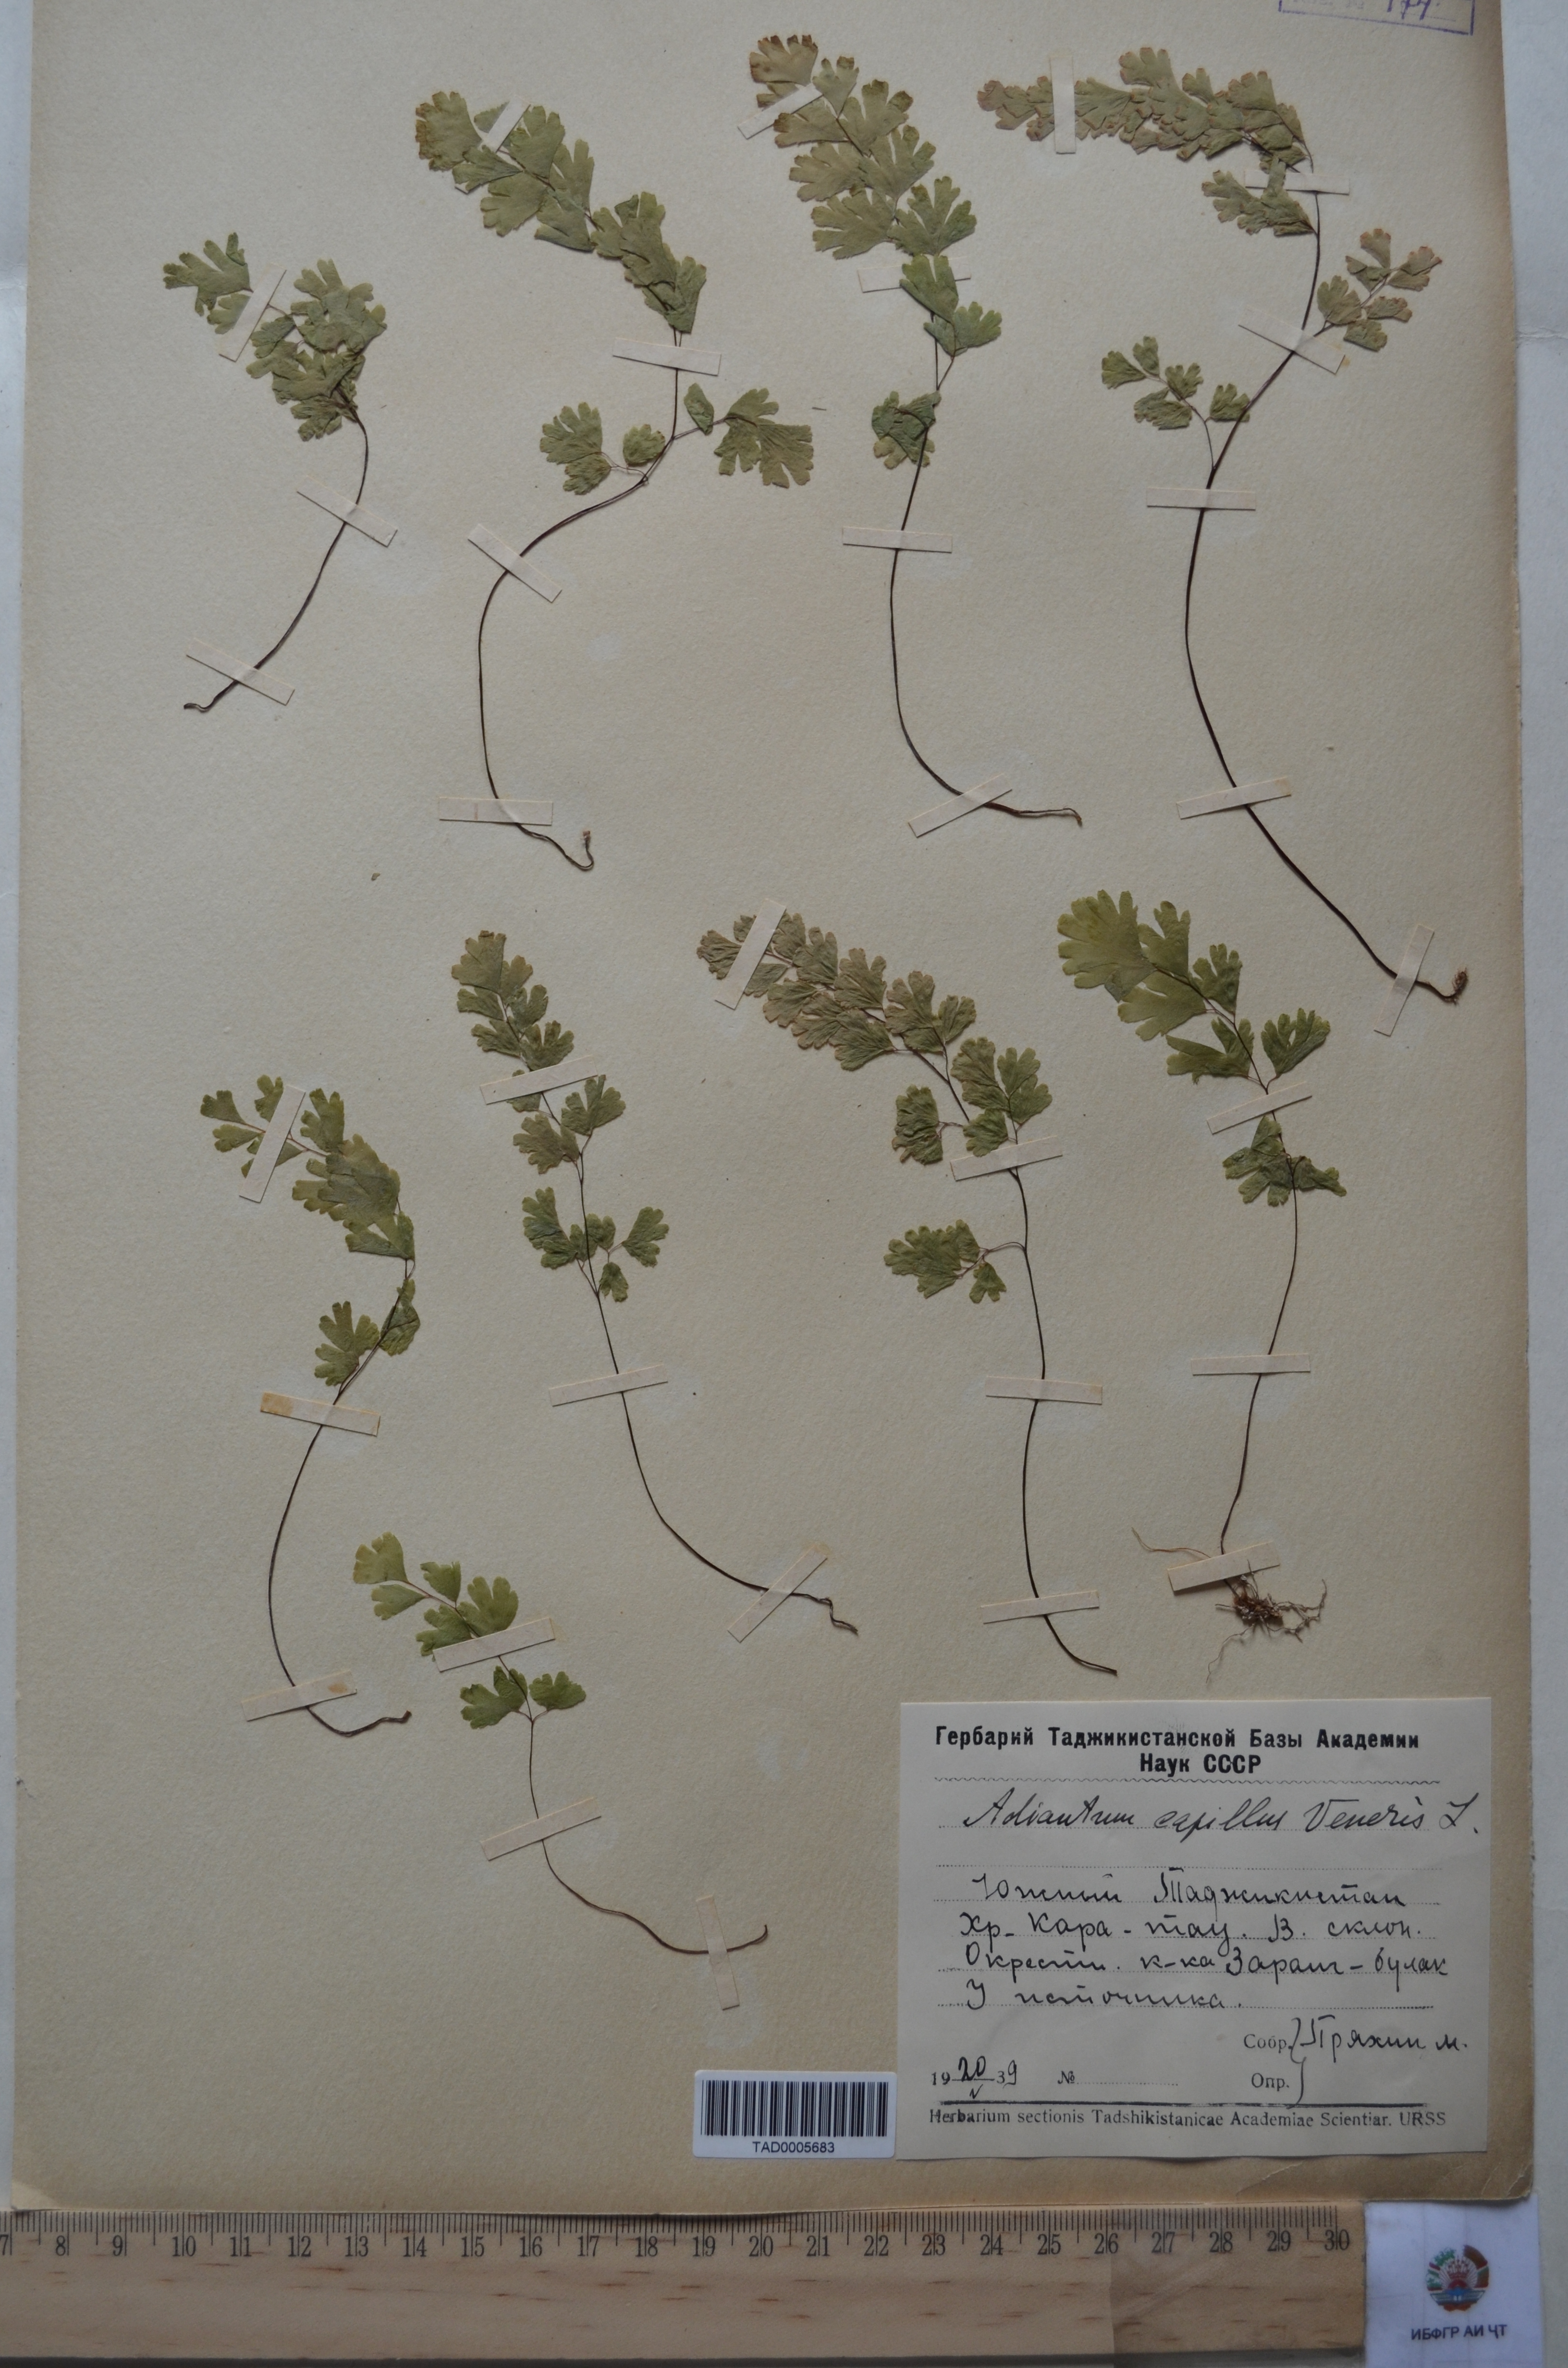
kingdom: Plantae
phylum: Tracheophyta
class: Polypodiopsida
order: Polypodiales
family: Pteridaceae
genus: Adiantum
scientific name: Adiantum capillus-veneris
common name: Maidenhair fern
